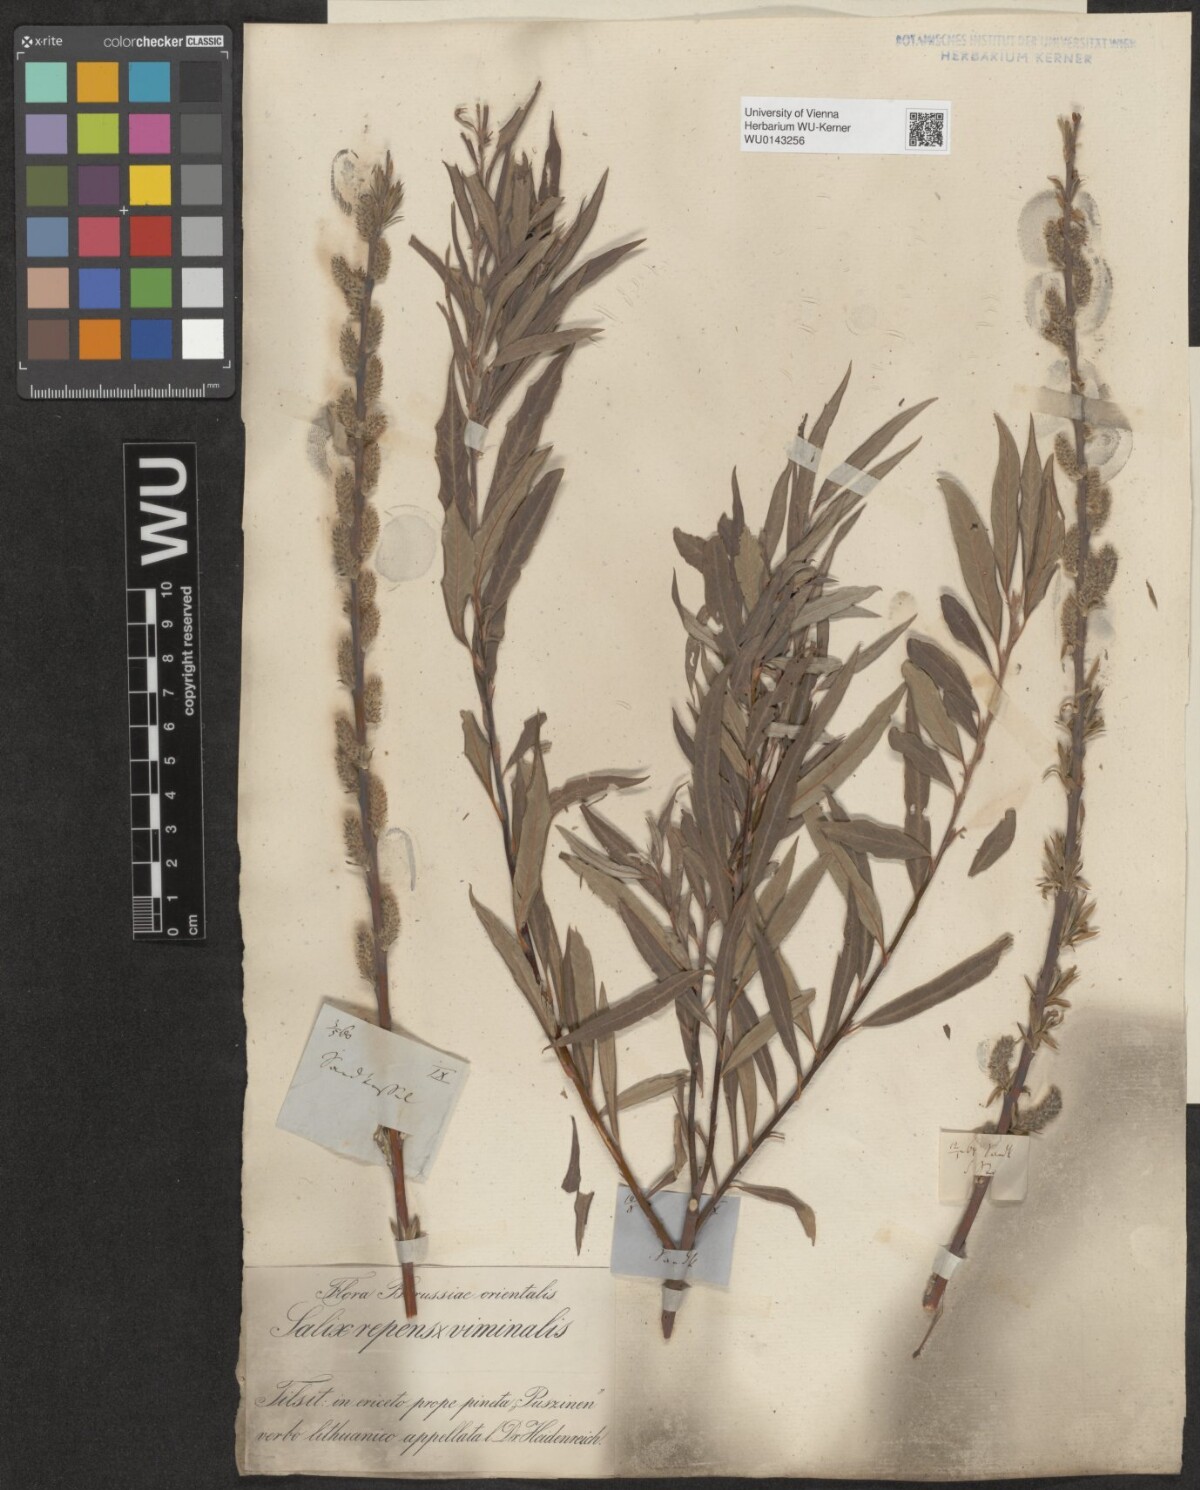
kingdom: Plantae
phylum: Tracheophyta
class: Magnoliopsida
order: Malpighiales
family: Salicaceae
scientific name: Salicaceae
